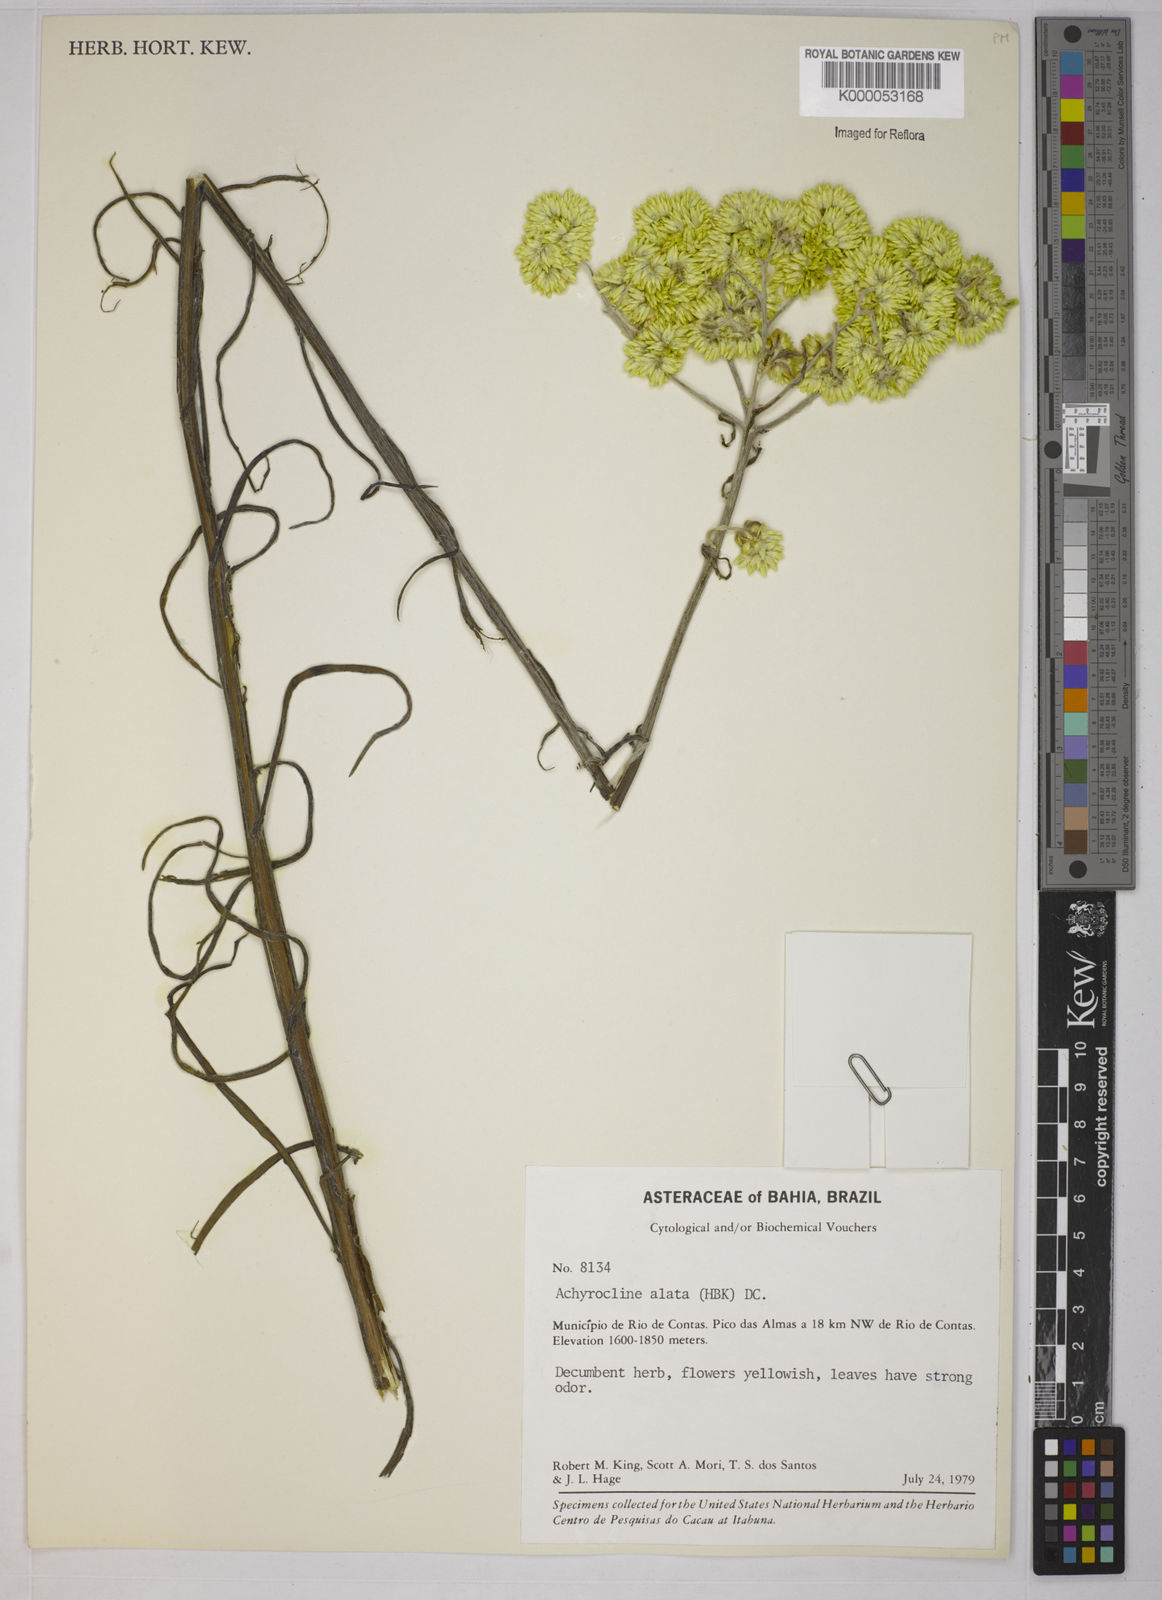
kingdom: Plantae
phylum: Tracheophyta
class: Magnoliopsida
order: Asterales
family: Asteraceae
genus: Achyrocline
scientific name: Achyrocline alata
